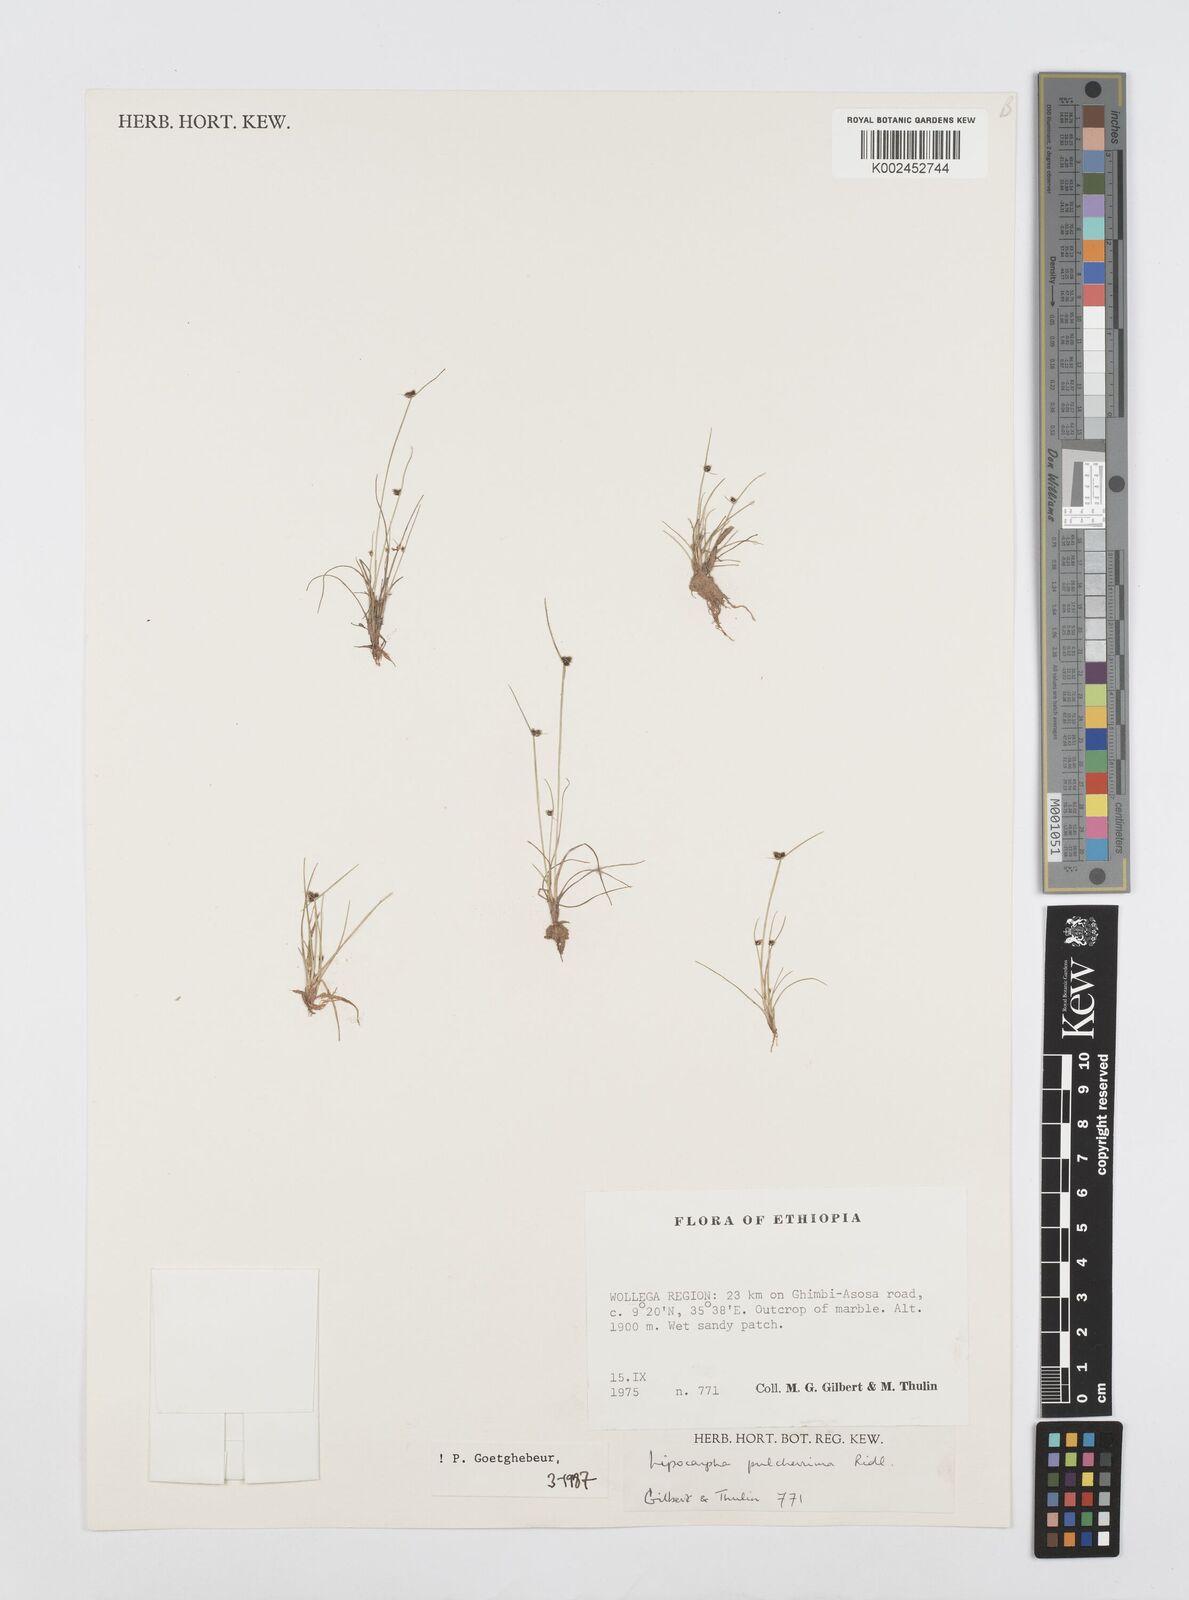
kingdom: Plantae
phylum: Tracheophyta
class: Liliopsida
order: Poales
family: Cyperaceae
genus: Cyperus
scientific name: Cyperus nanus
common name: Indian flatsedge
